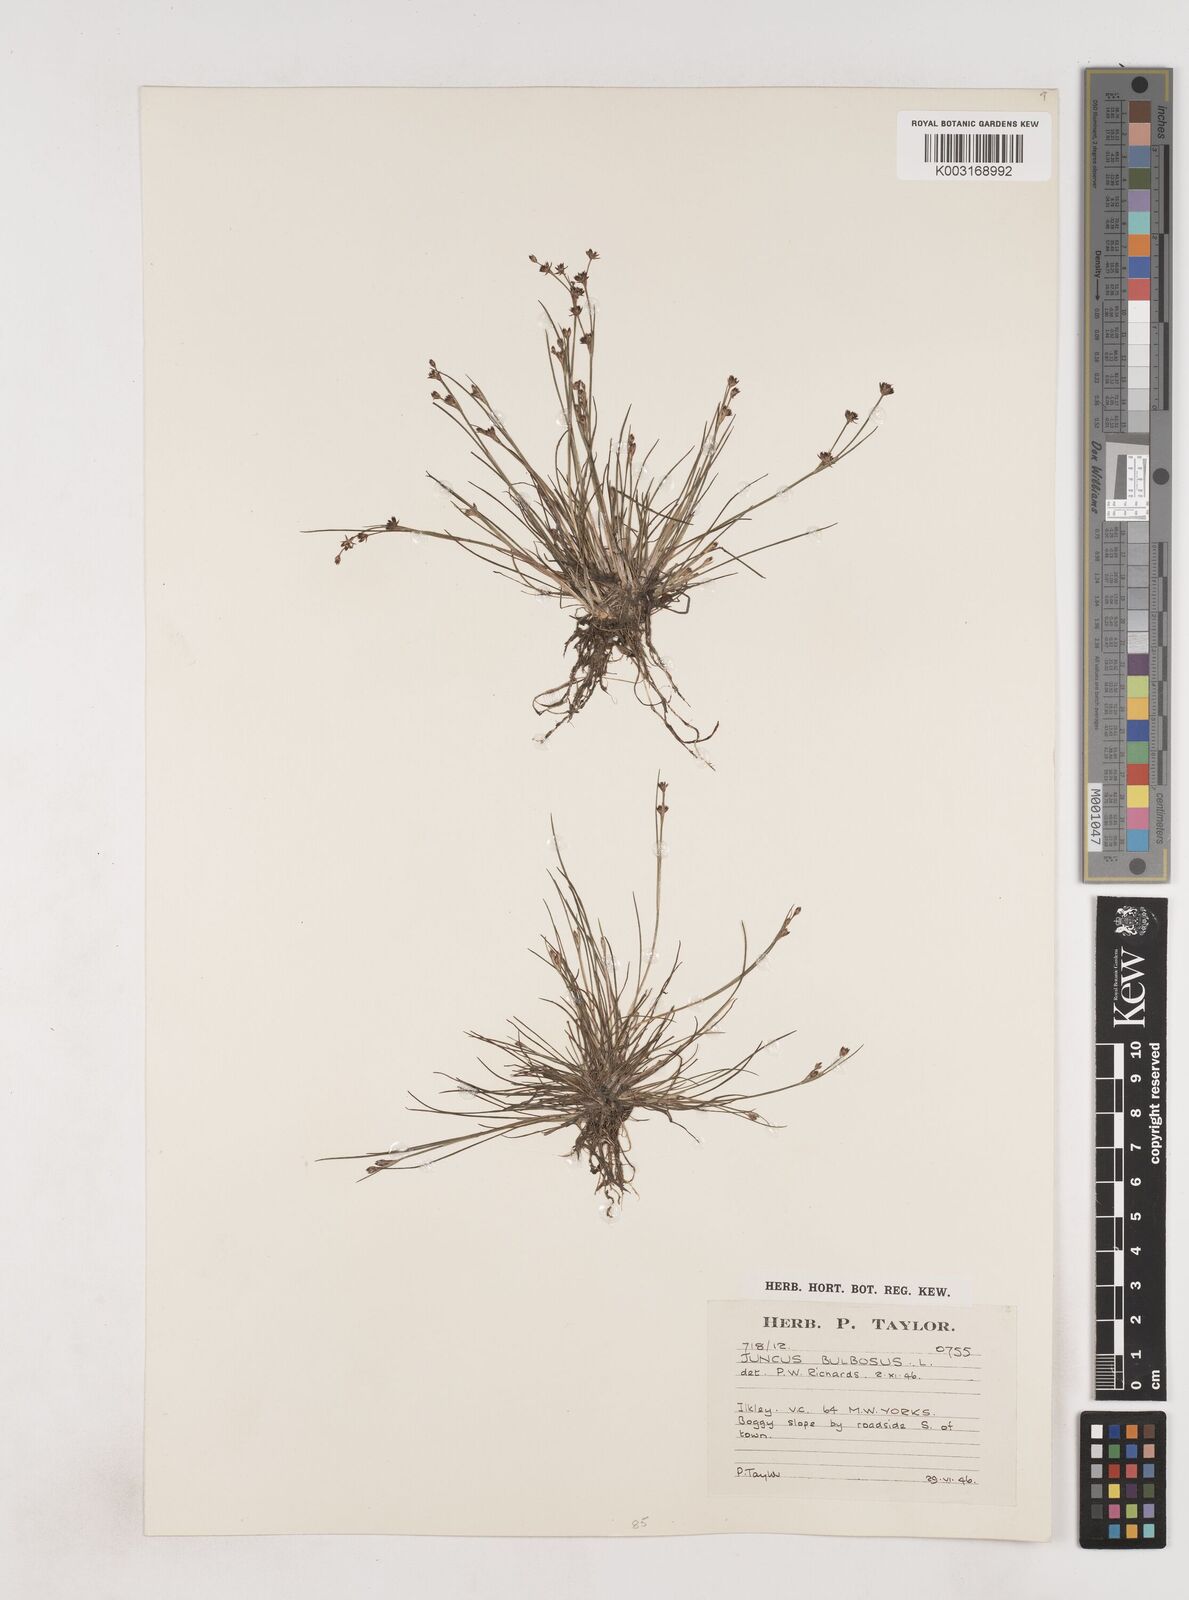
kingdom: Plantae
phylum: Tracheophyta
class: Liliopsida
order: Poales
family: Juncaceae
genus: Juncus
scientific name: Juncus bulbosus
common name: Bulbous rush
